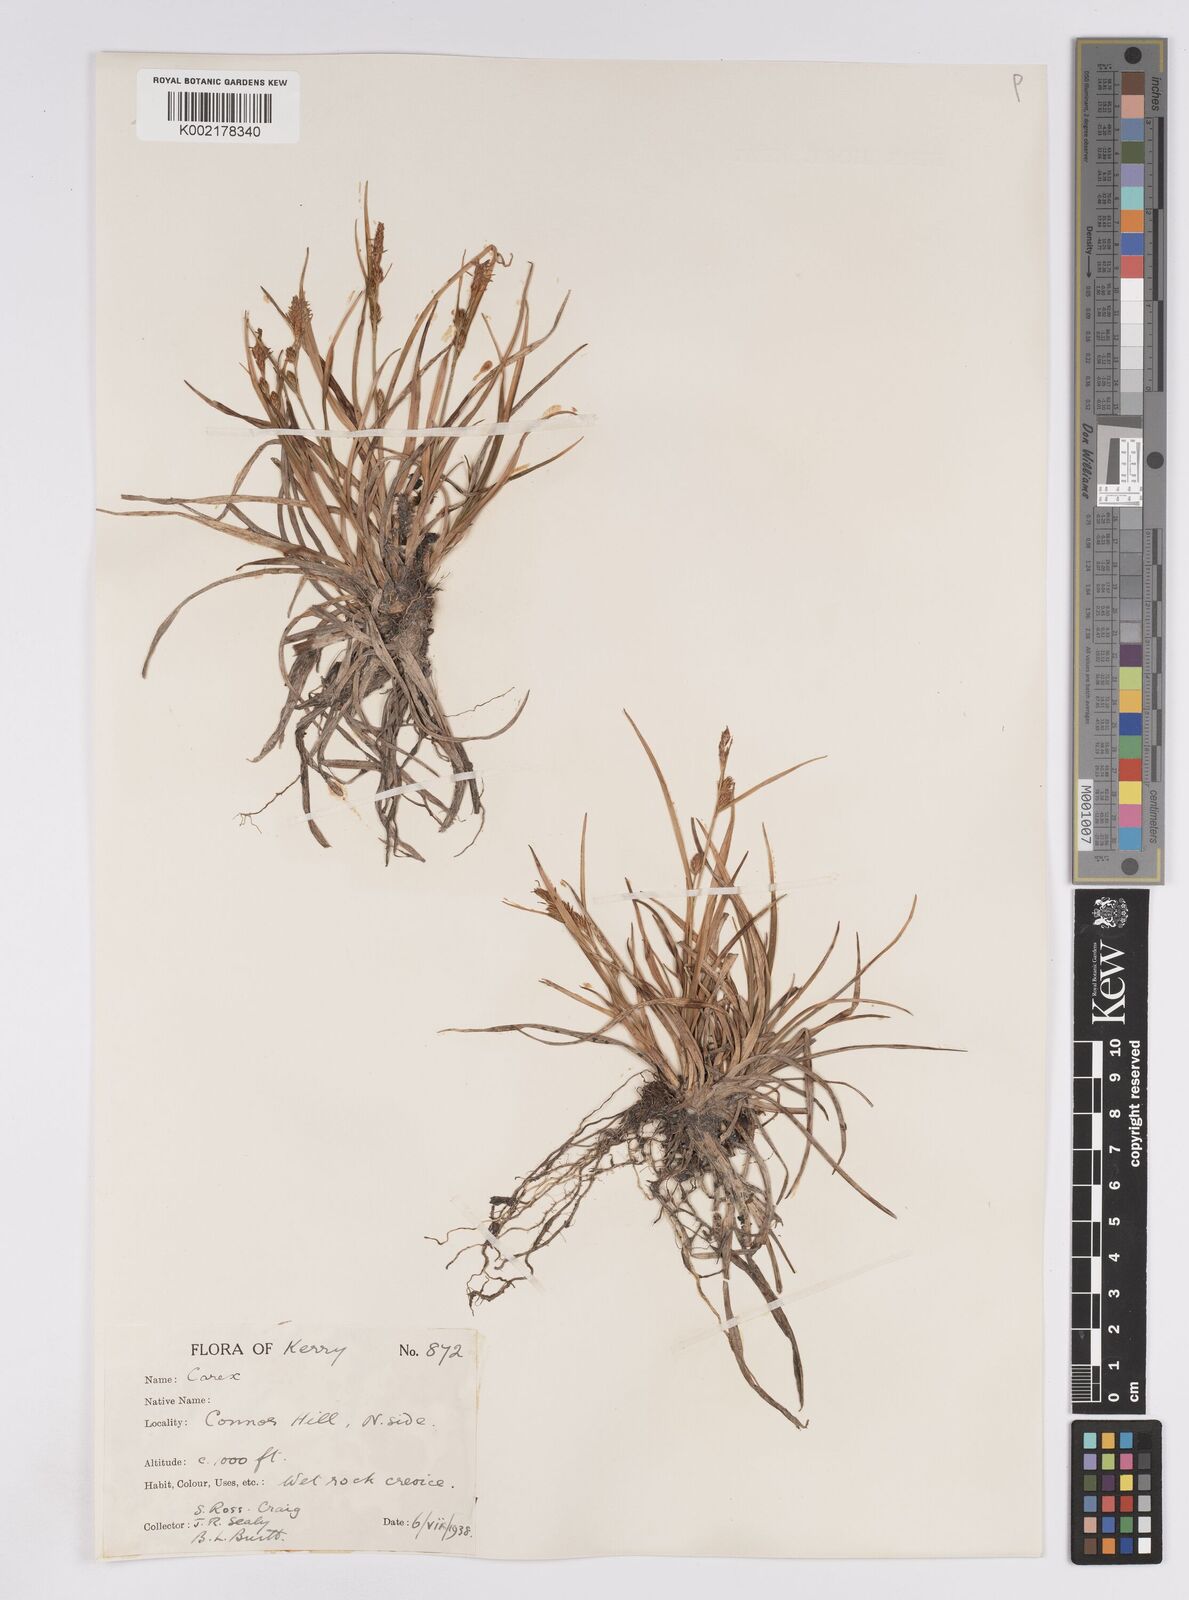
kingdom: Plantae
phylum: Tracheophyta
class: Liliopsida
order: Poales
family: Cyperaceae
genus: Carex
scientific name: Carex demissa
